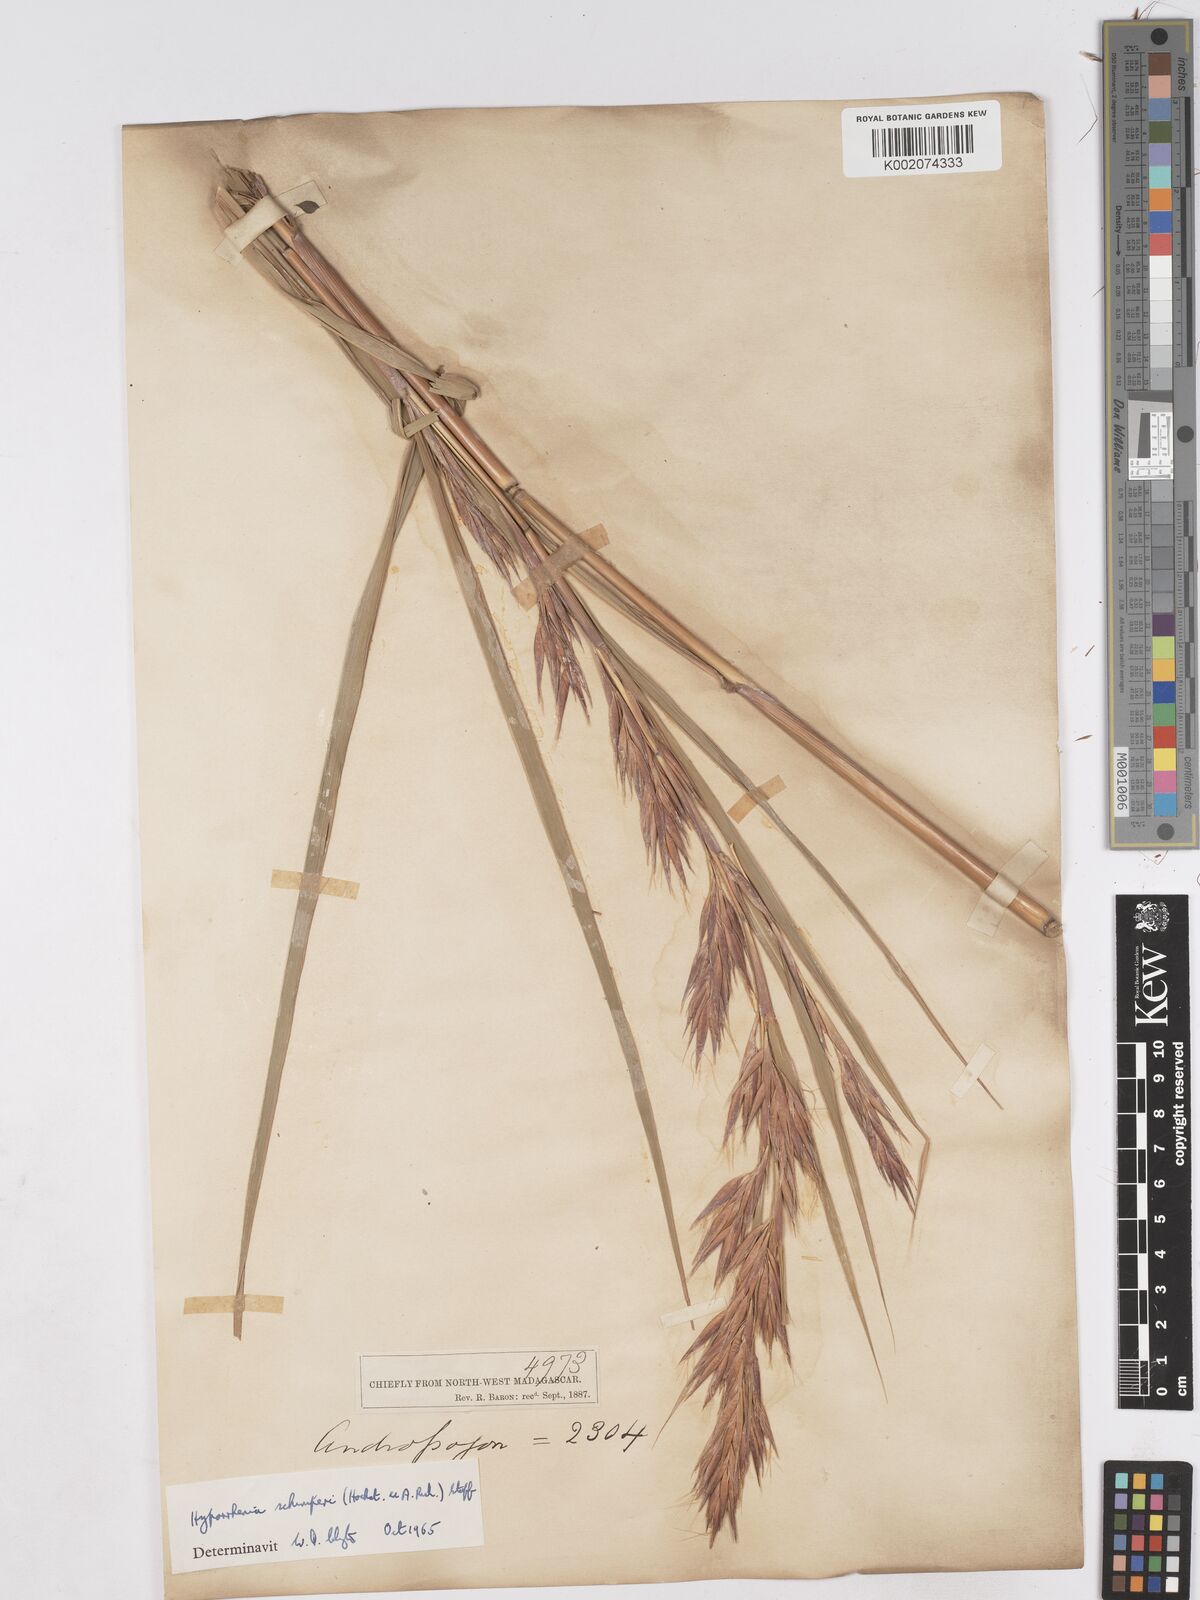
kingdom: Plantae
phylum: Tracheophyta
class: Liliopsida
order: Poales
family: Poaceae
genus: Hyparrhenia
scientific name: Hyparrhenia variabilis
